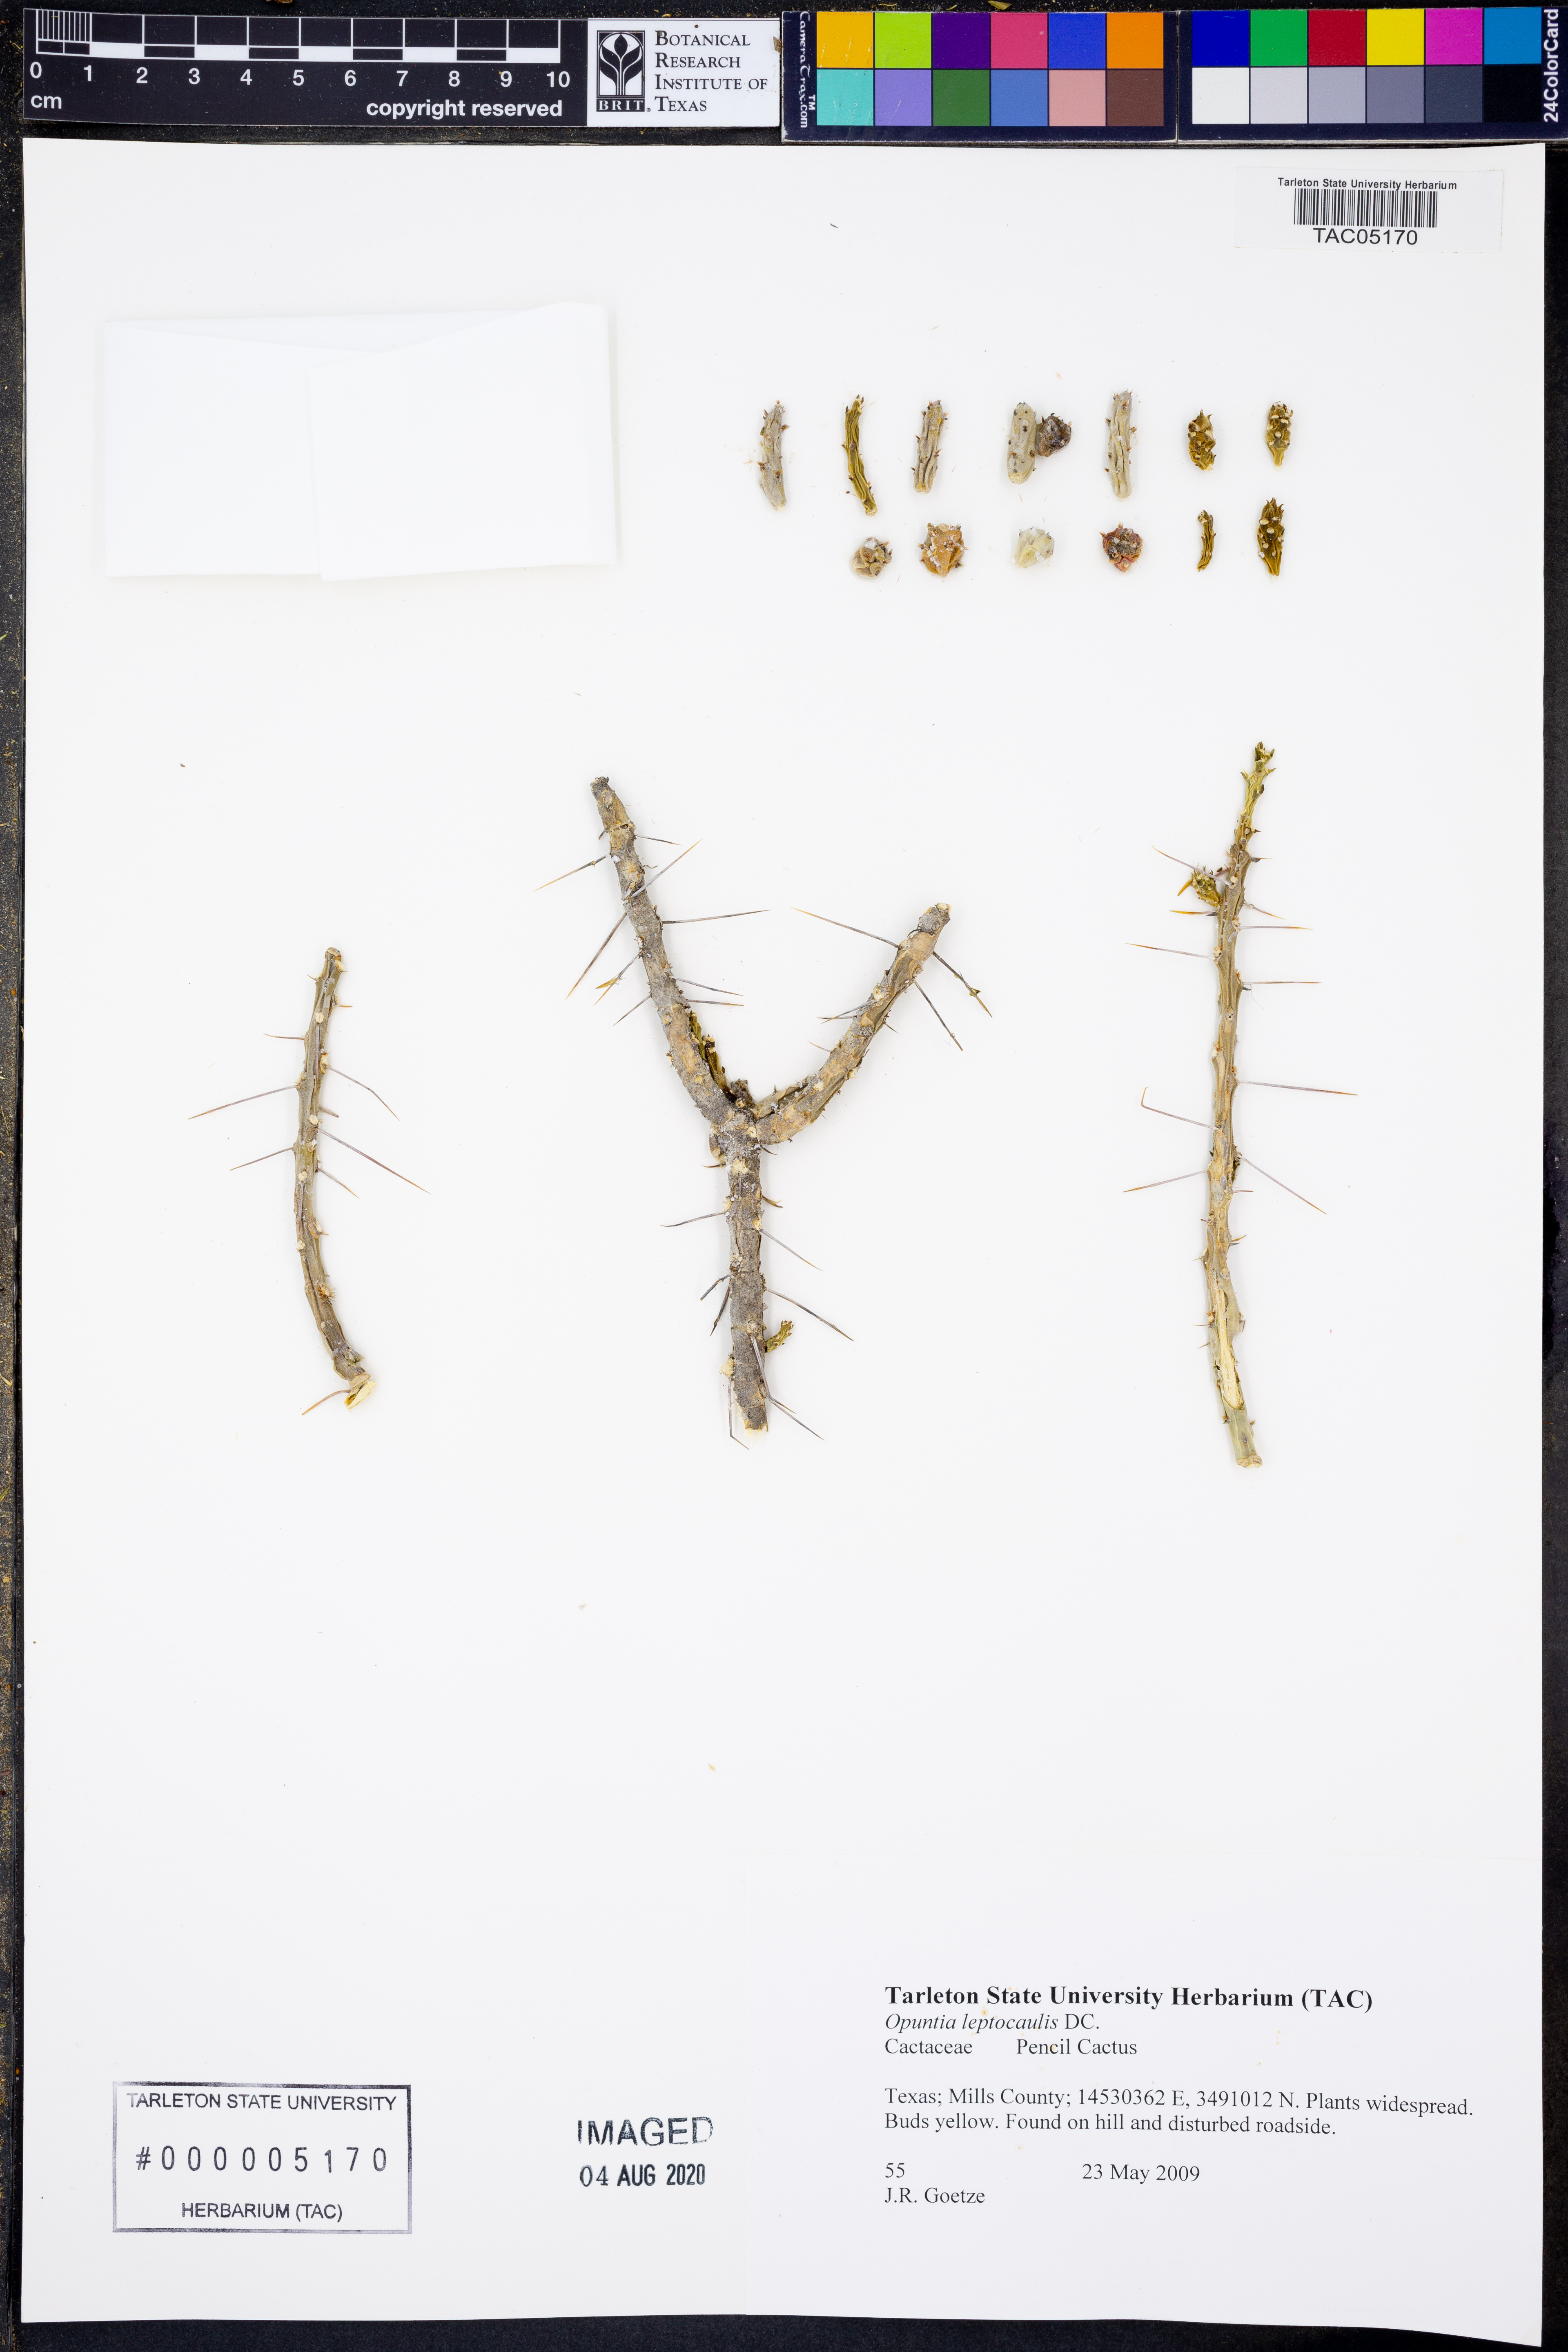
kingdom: Plantae
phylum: Tracheophyta
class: Magnoliopsida
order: Caryophyllales
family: Cactaceae
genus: Cylindropuntia
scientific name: Cylindropuntia leptocaulis
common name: Christmas cactus
